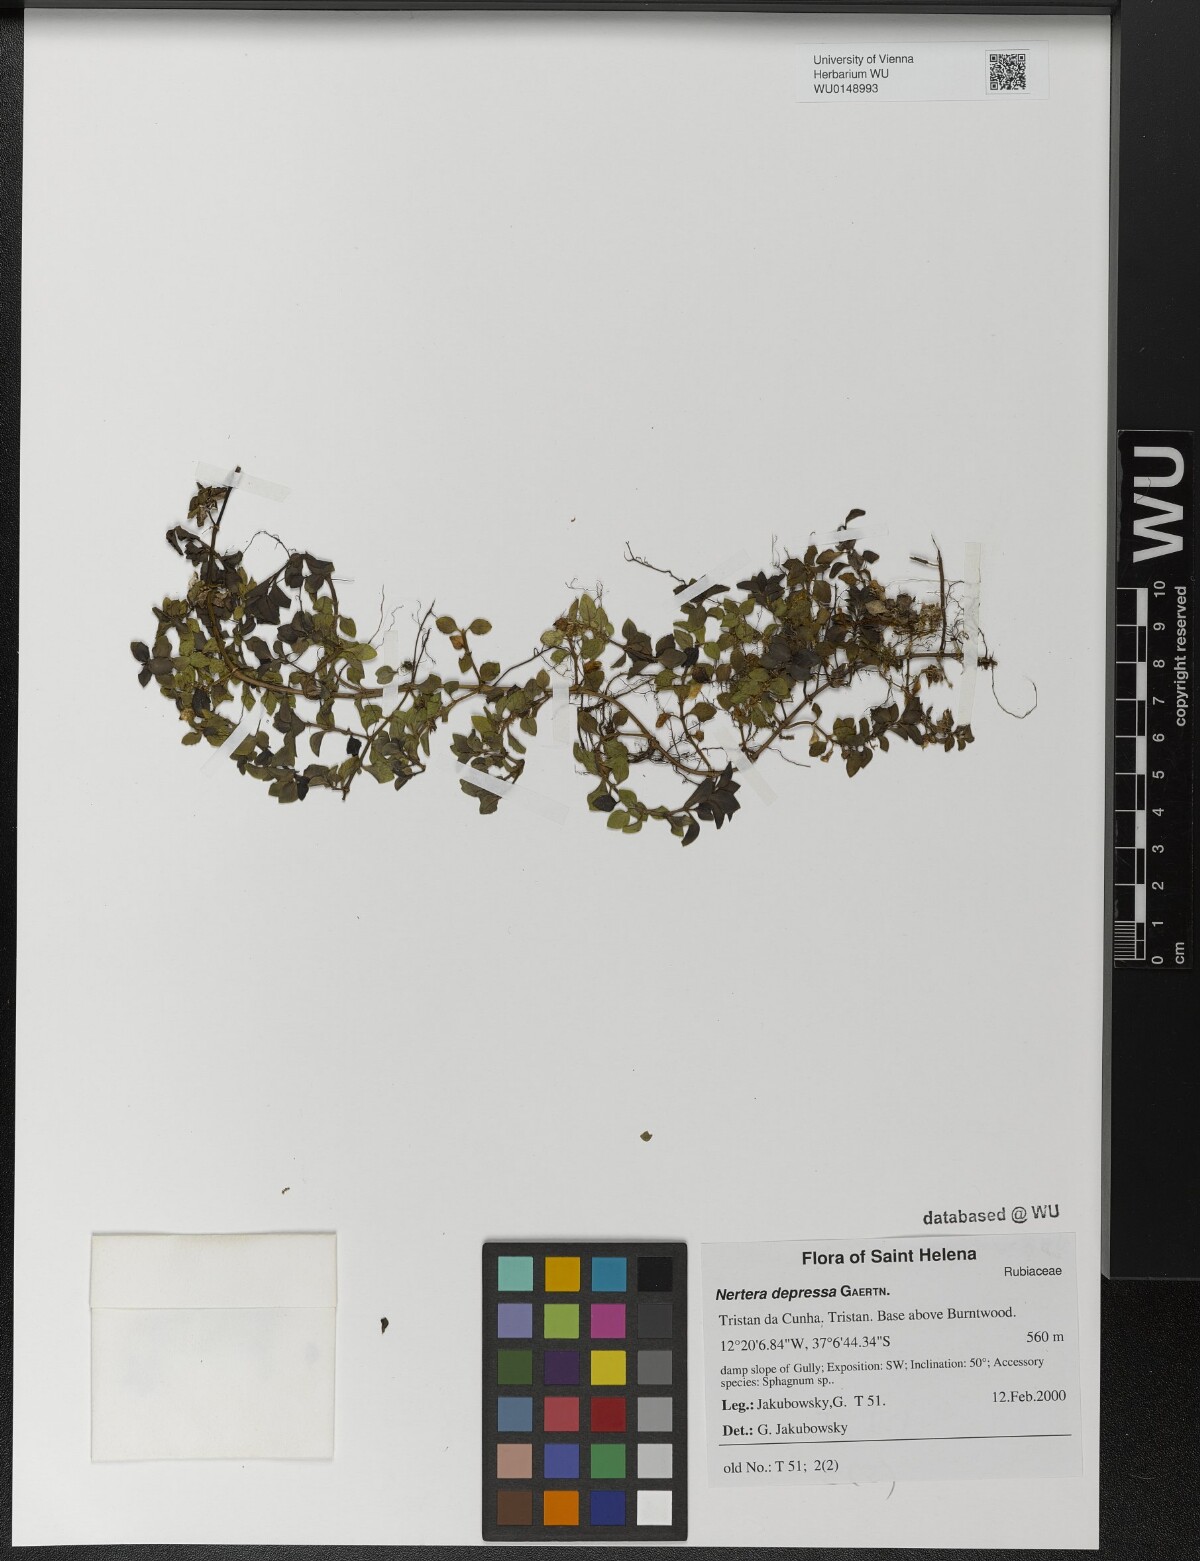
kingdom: Plantae
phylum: Tracheophyta
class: Magnoliopsida
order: Gentianales
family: Rubiaceae
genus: Nertera
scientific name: Nertera granadensis
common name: Beadplant
